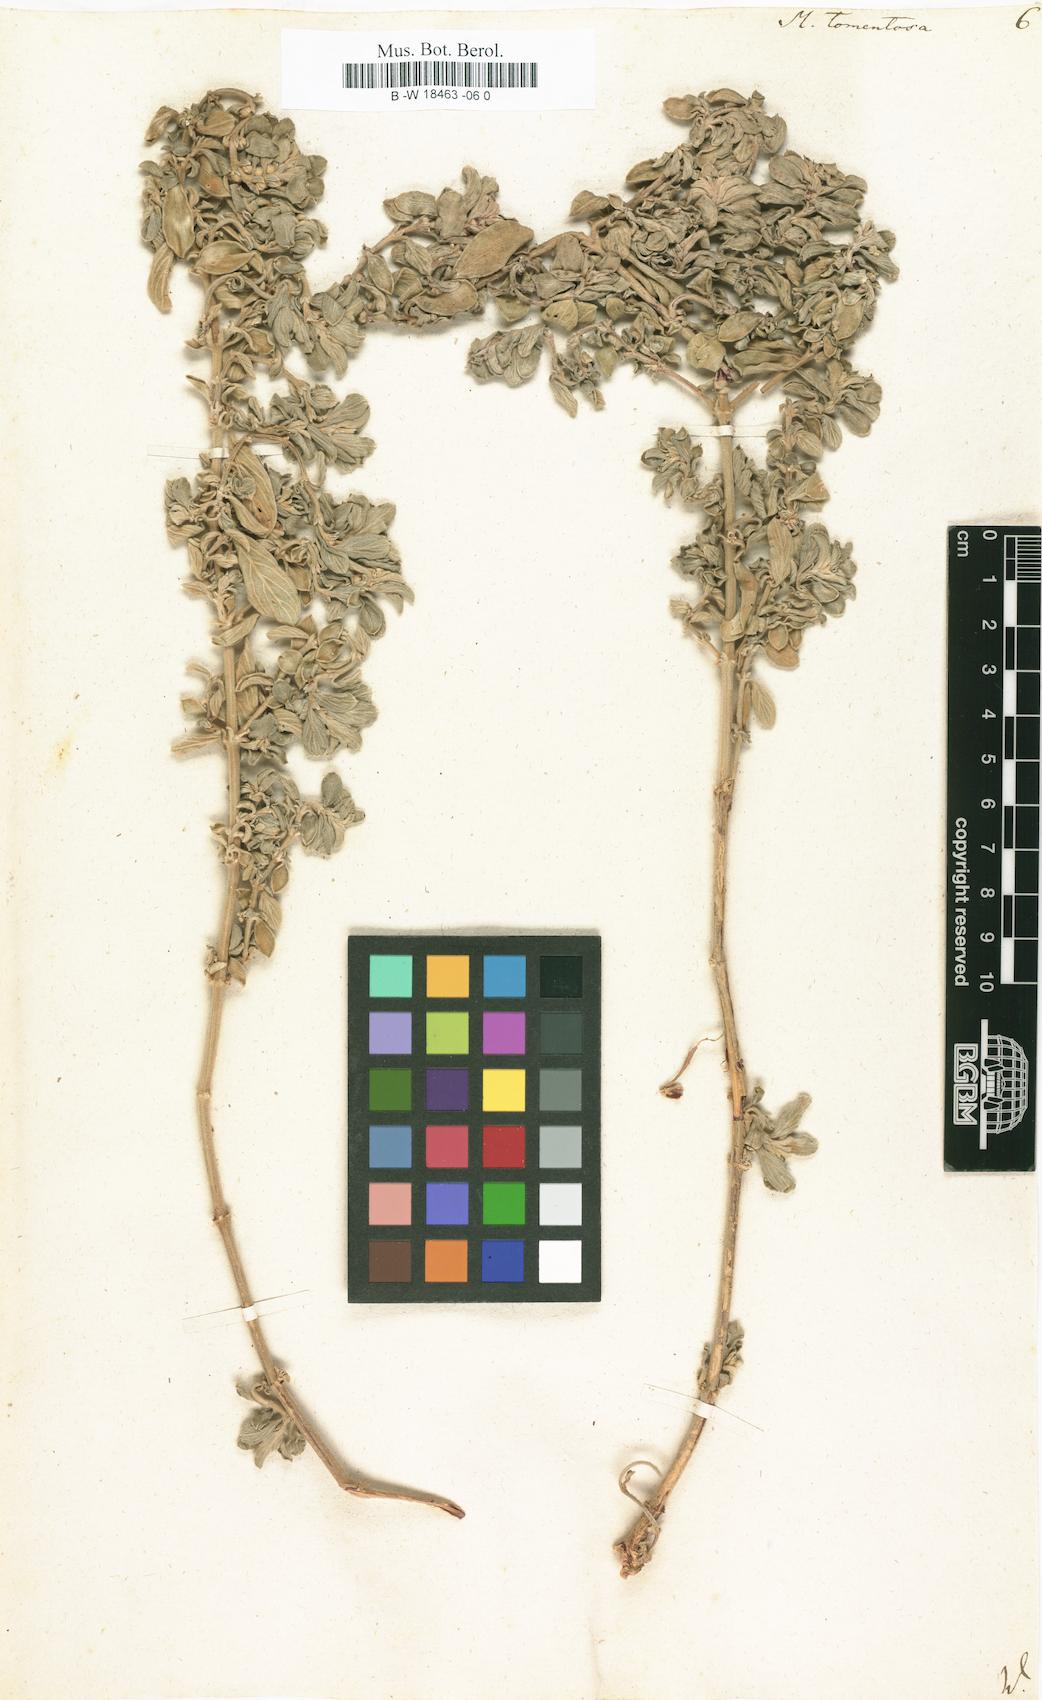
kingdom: Plantae
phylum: Tracheophyta
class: Magnoliopsida
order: Malpighiales
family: Euphorbiaceae
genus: Mercurialis
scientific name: Mercurialis tomentosa
